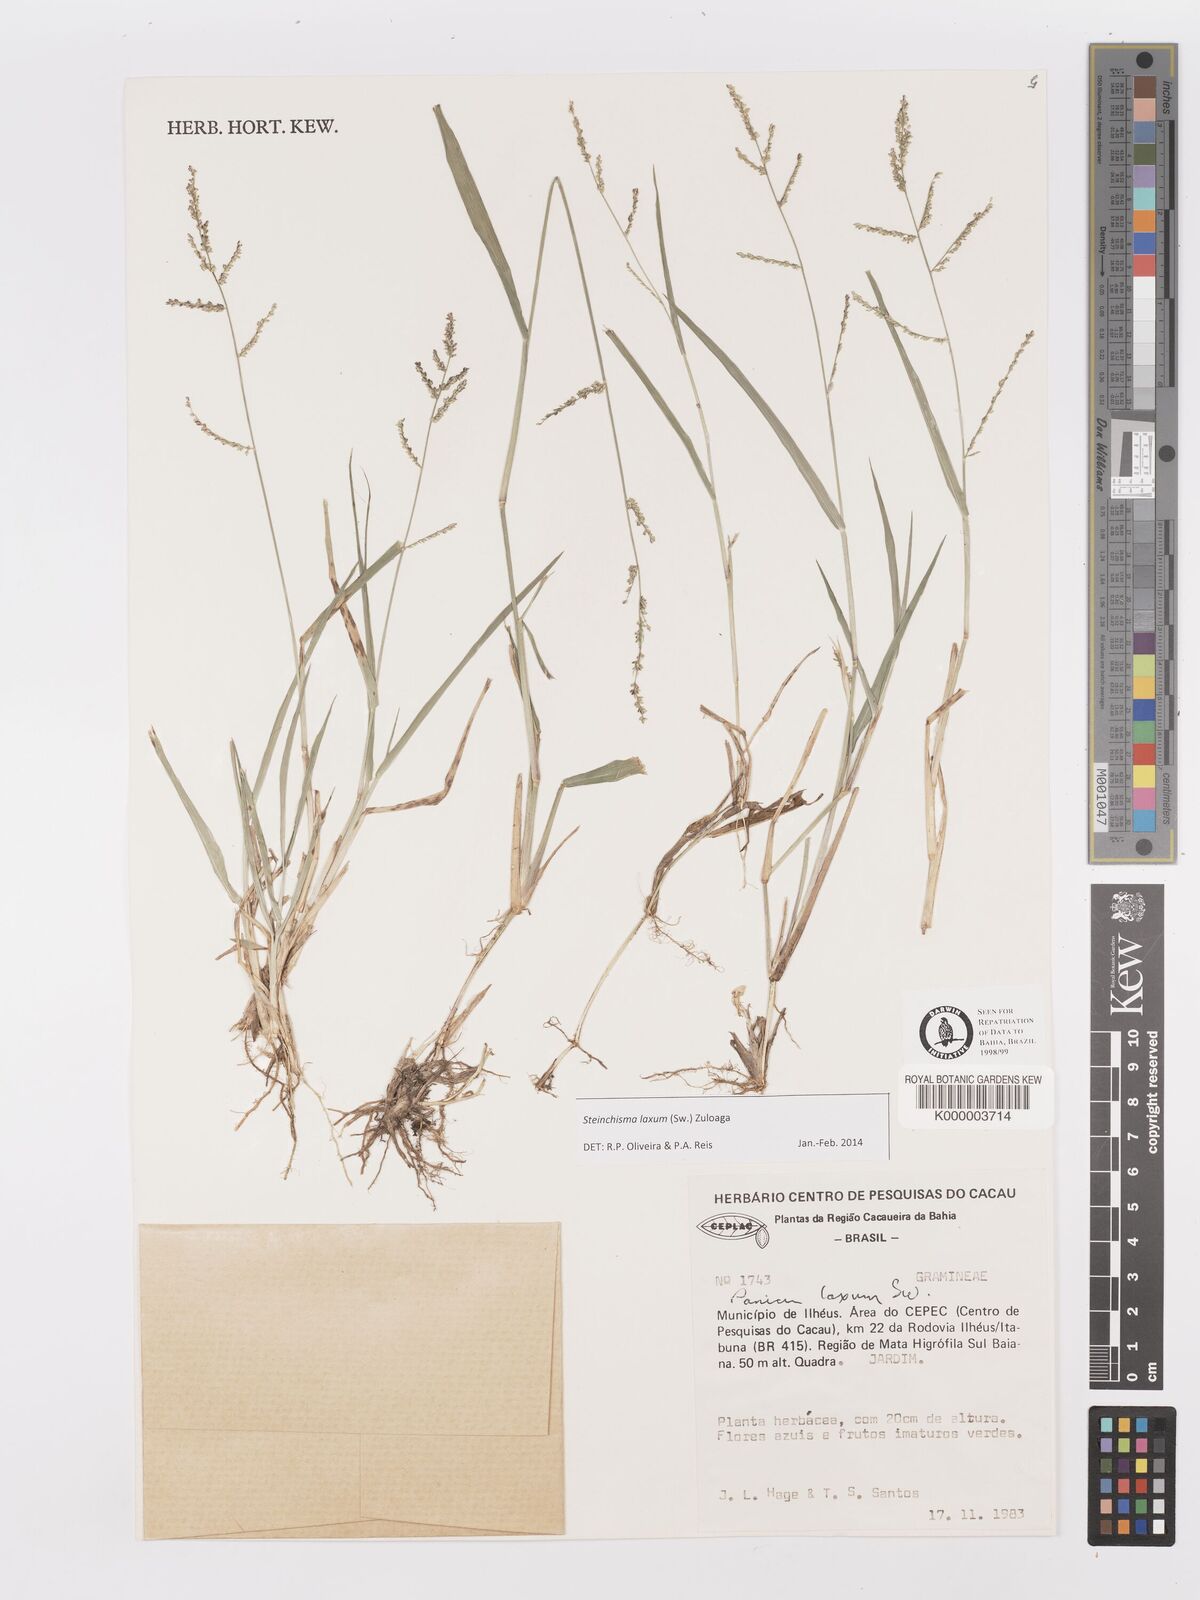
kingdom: Plantae
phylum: Tracheophyta
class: Liliopsida
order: Poales
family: Poaceae
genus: Panicum
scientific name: Panicum
